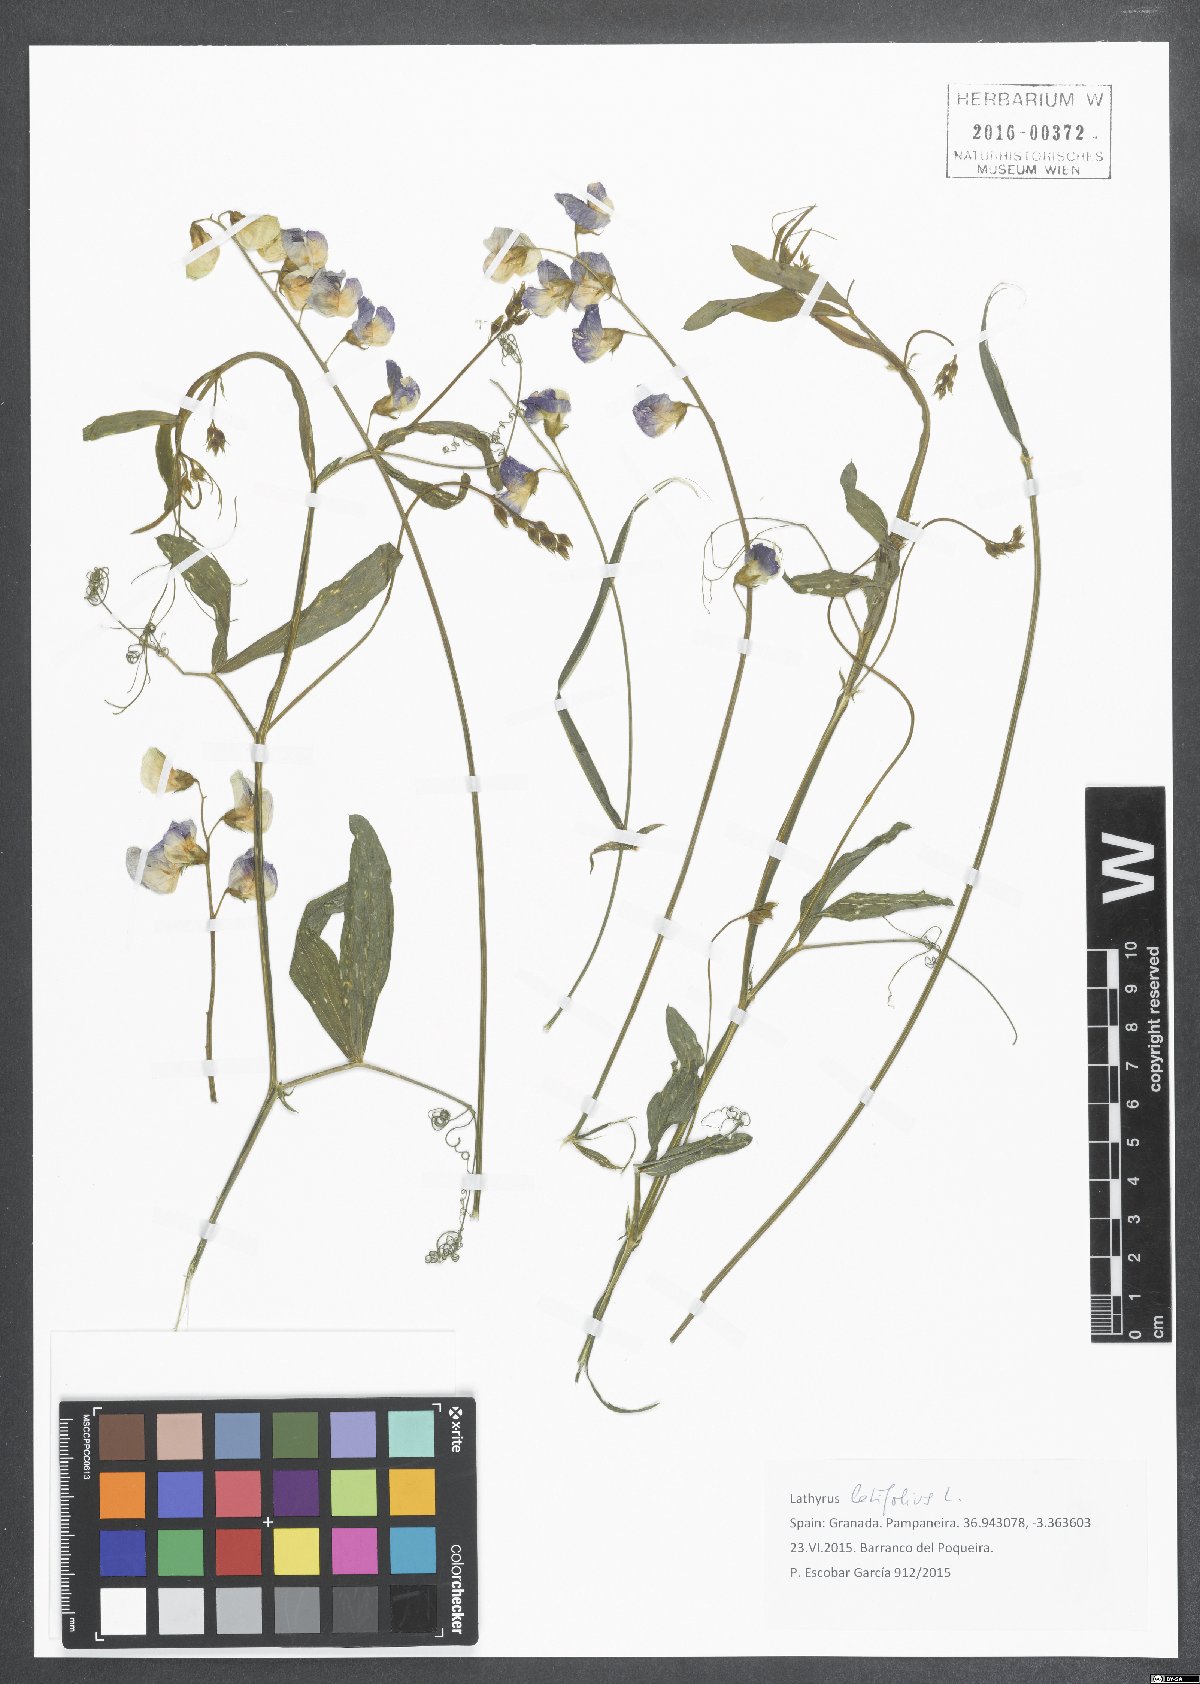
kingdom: Plantae
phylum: Tracheophyta
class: Magnoliopsida
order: Fabales
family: Fabaceae
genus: Lathyrus
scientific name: Lathyrus latifolius
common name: Perennial pea
